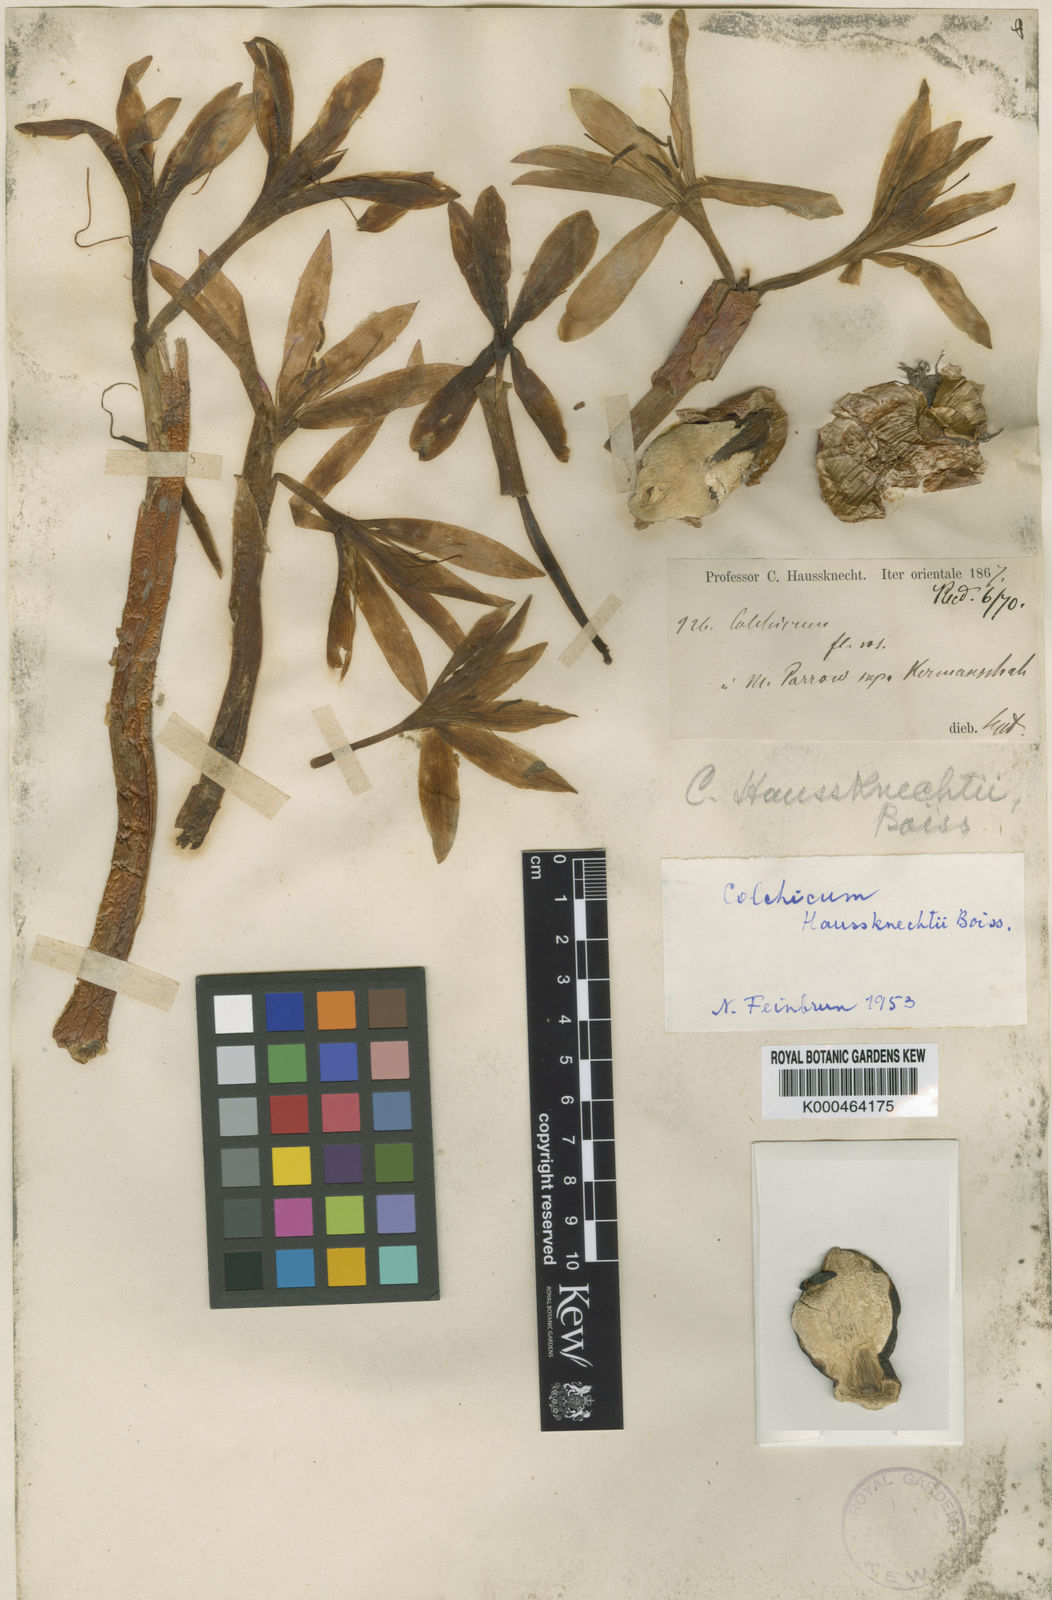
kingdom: Plantae
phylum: Tracheophyta
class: Liliopsida
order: Liliales
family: Colchicaceae
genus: Colchicum
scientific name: Colchicum persicum
